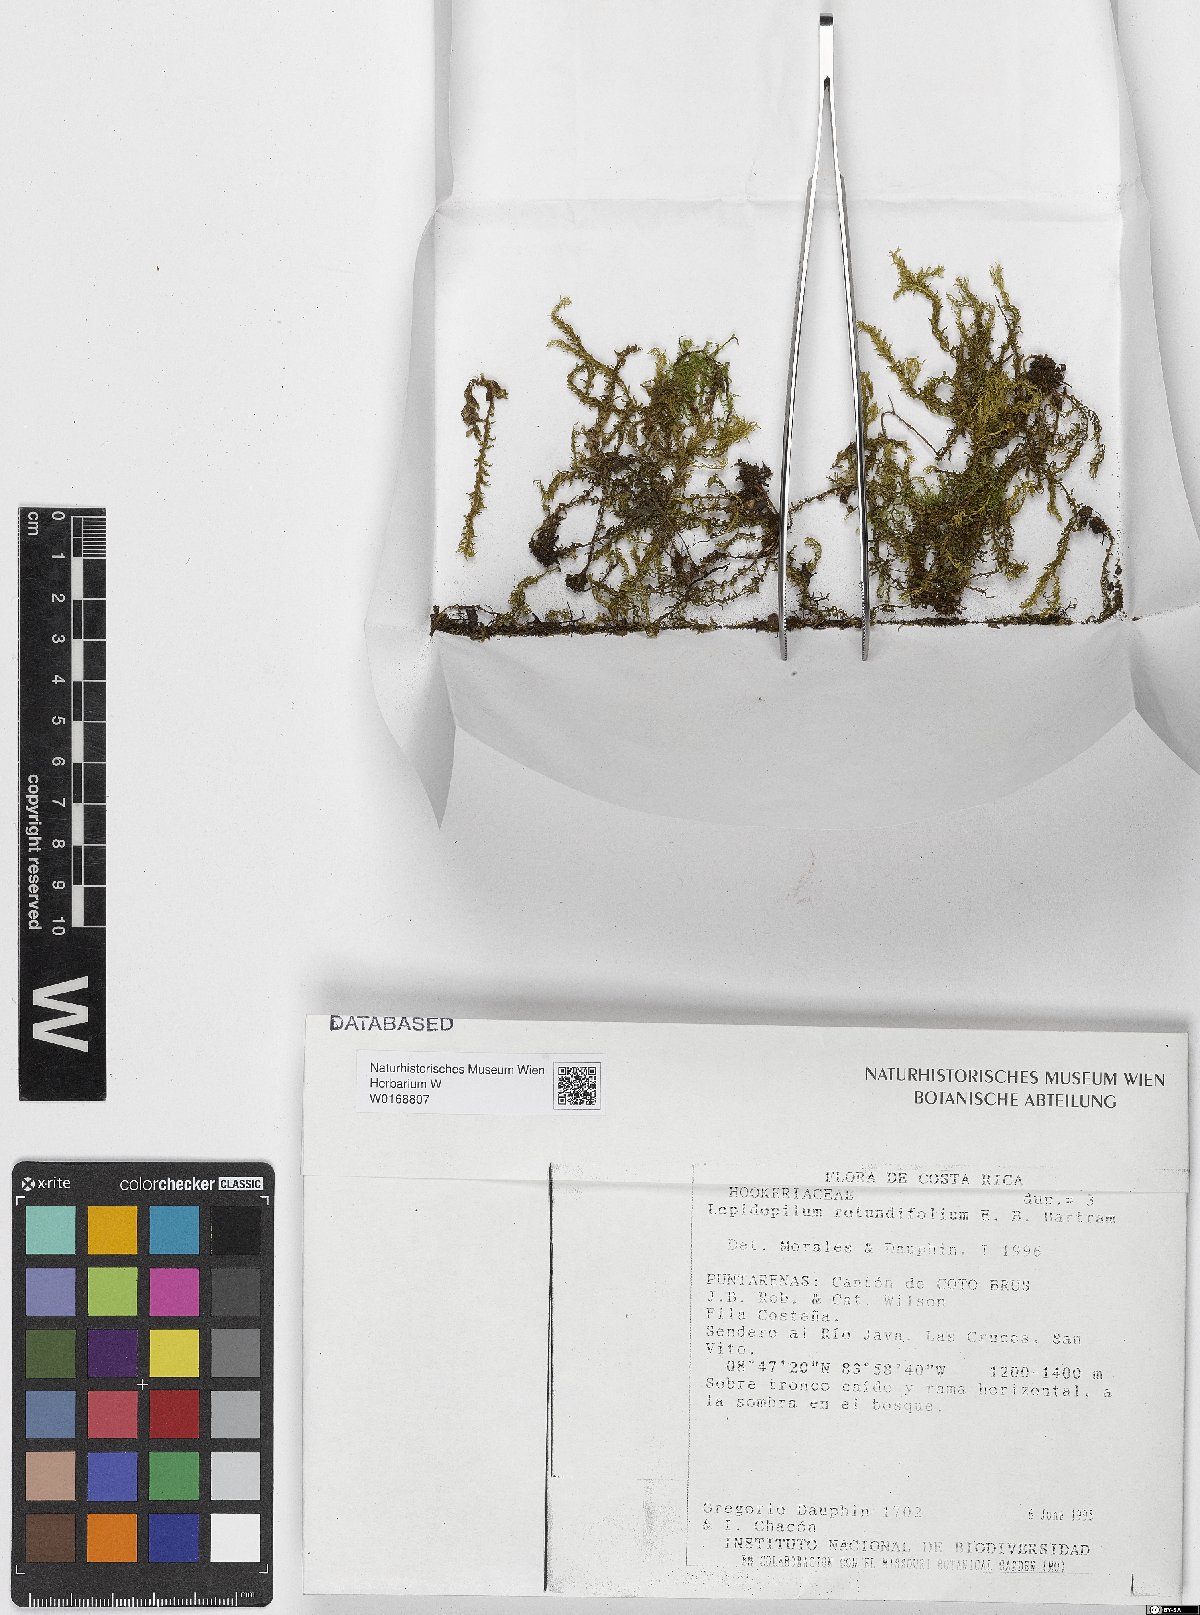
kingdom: Plantae
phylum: Bryophyta
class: Bryopsida
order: Hookeriales
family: Pilotrichaceae
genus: Lepidopilum
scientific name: Lepidopilum curvifolium
